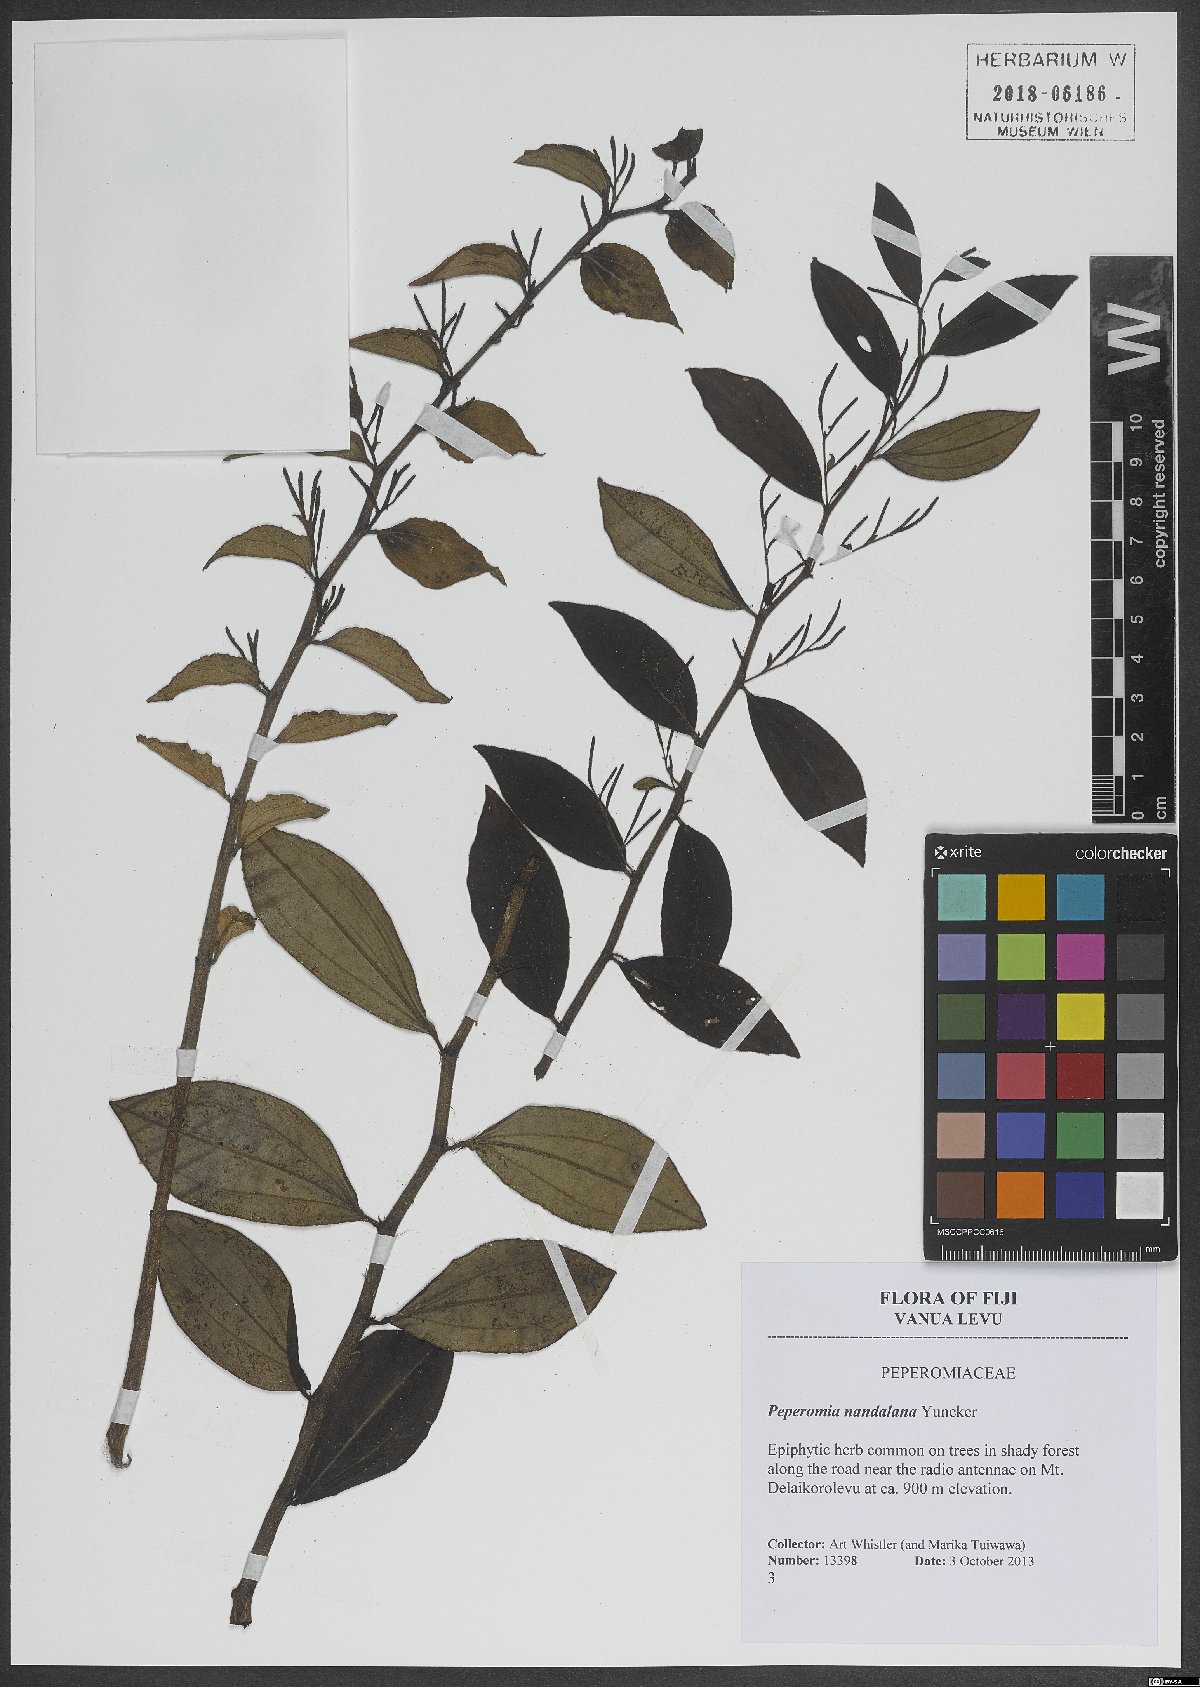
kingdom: Plantae
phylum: Tracheophyta
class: Magnoliopsida
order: Piperales
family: Piperaceae
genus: Peperomia
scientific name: Peperomia nandalana
